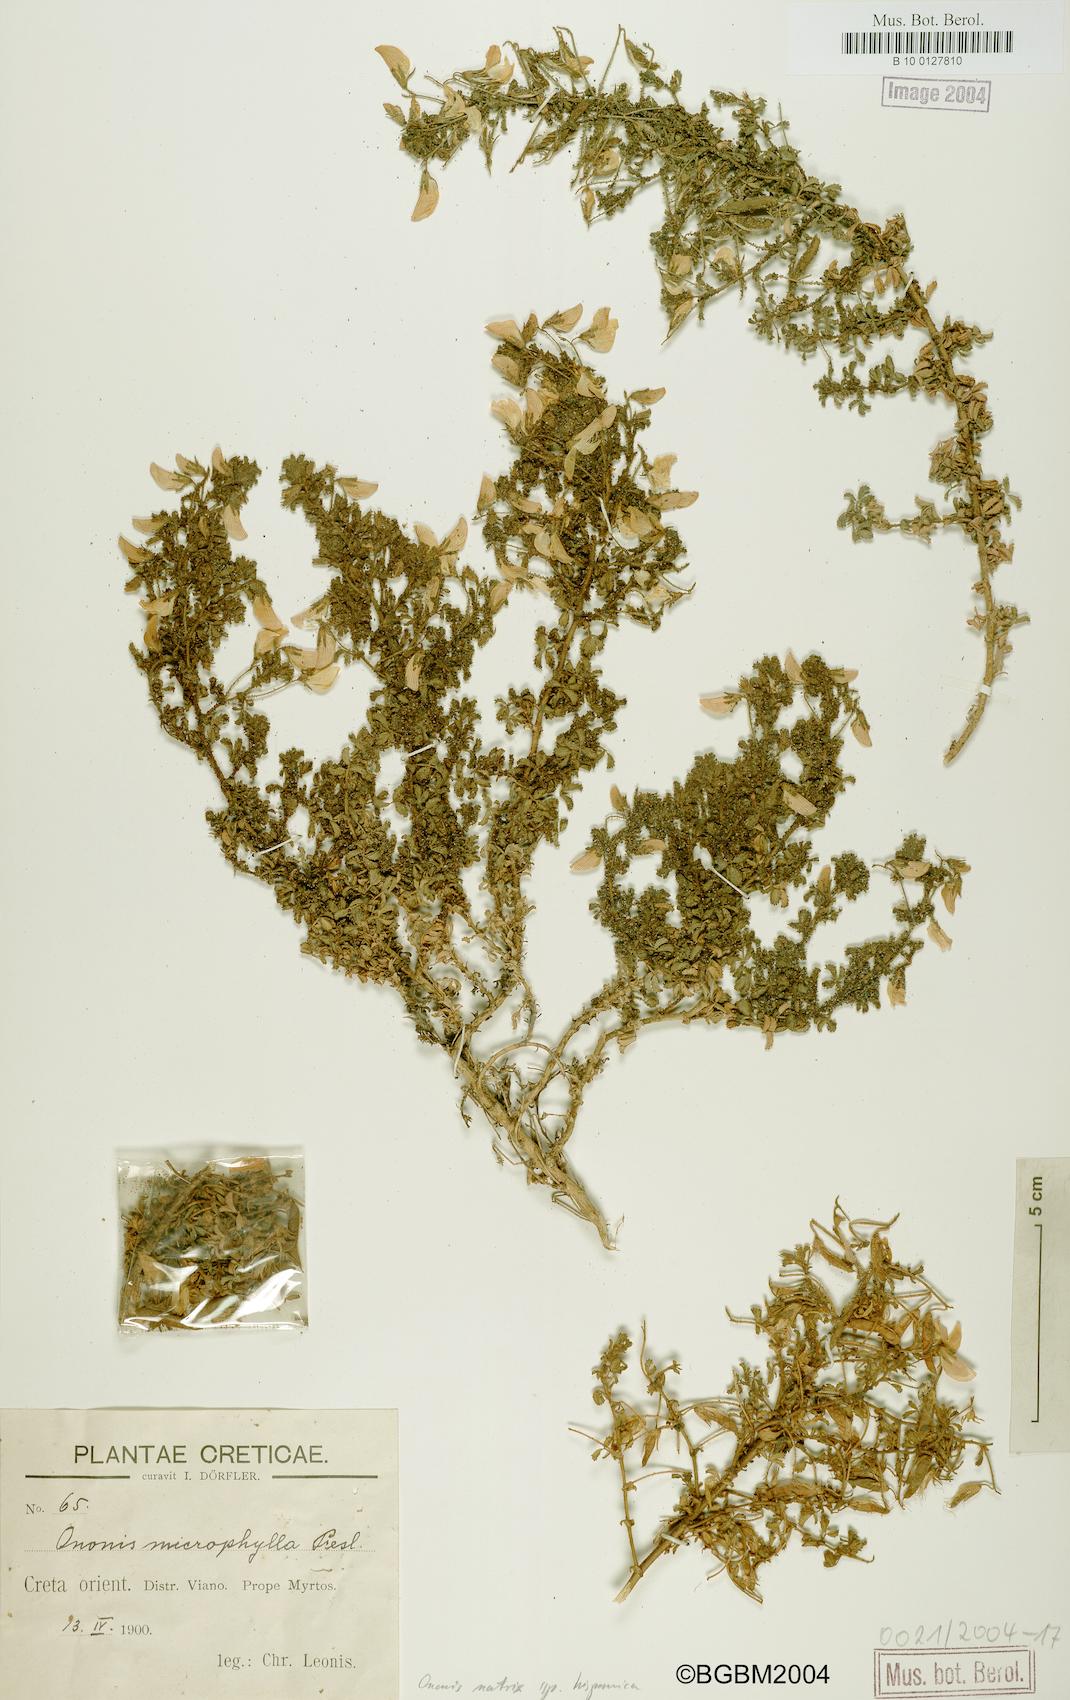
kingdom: Plantae
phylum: Tracheophyta
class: Magnoliopsida
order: Fabales
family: Fabaceae
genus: Ononis
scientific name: Ononis natrix
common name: Yellow restharrow
